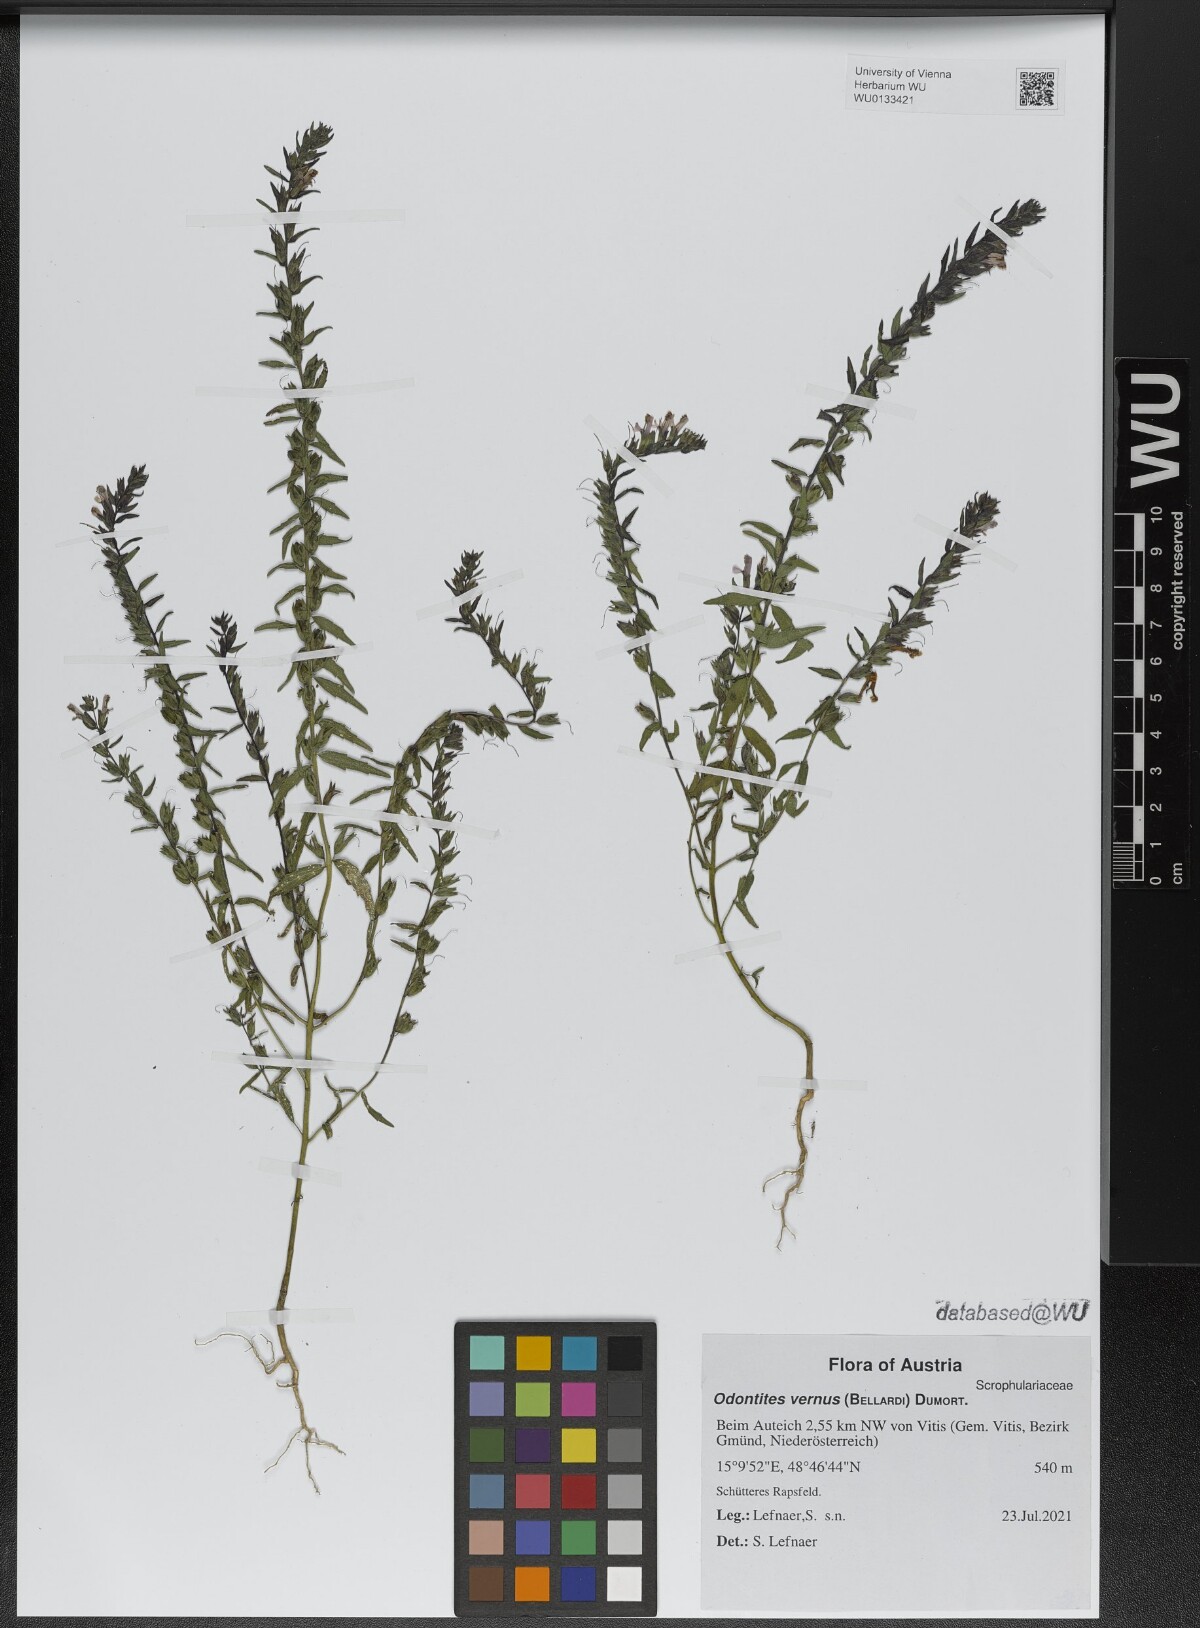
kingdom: Plantae
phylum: Tracheophyta
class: Magnoliopsida
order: Lamiales
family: Orobanchaceae
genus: Odontites
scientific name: Odontites vernus
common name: Red bartsia
